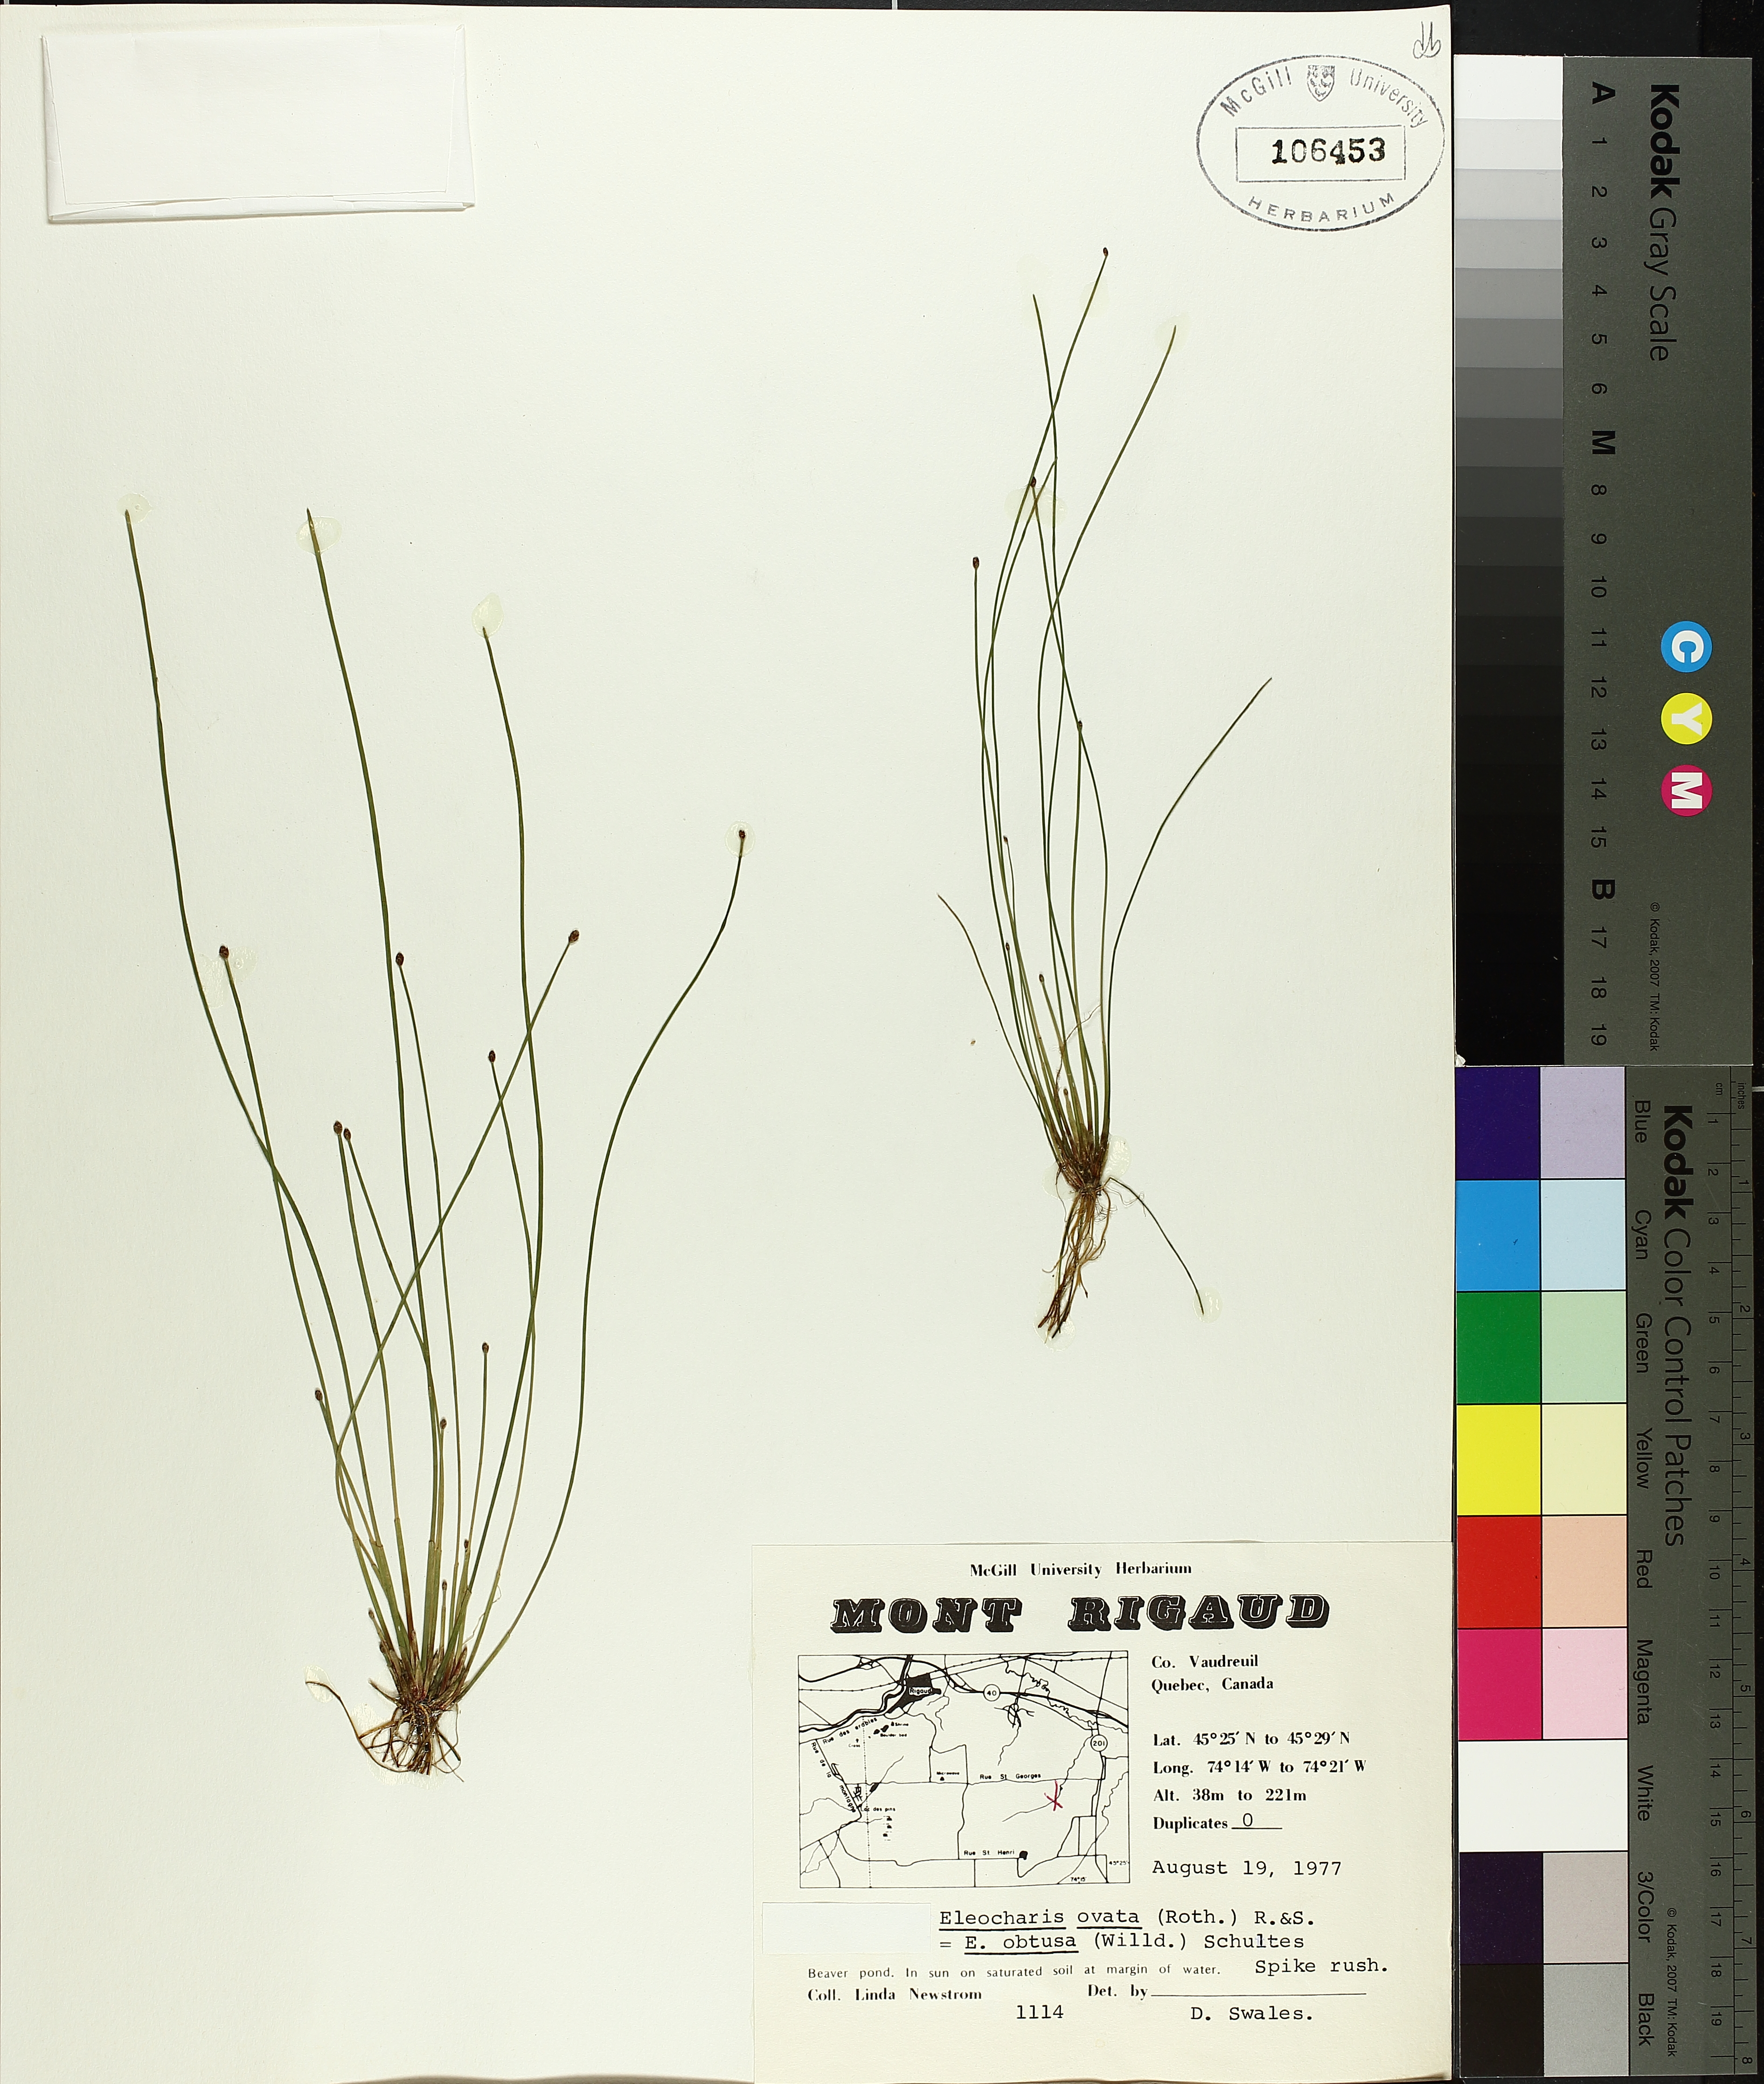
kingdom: Plantae
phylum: Tracheophyta
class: Liliopsida
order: Poales
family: Cyperaceae
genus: Eleocharis
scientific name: Eleocharis ovata
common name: Oval spike-rush
